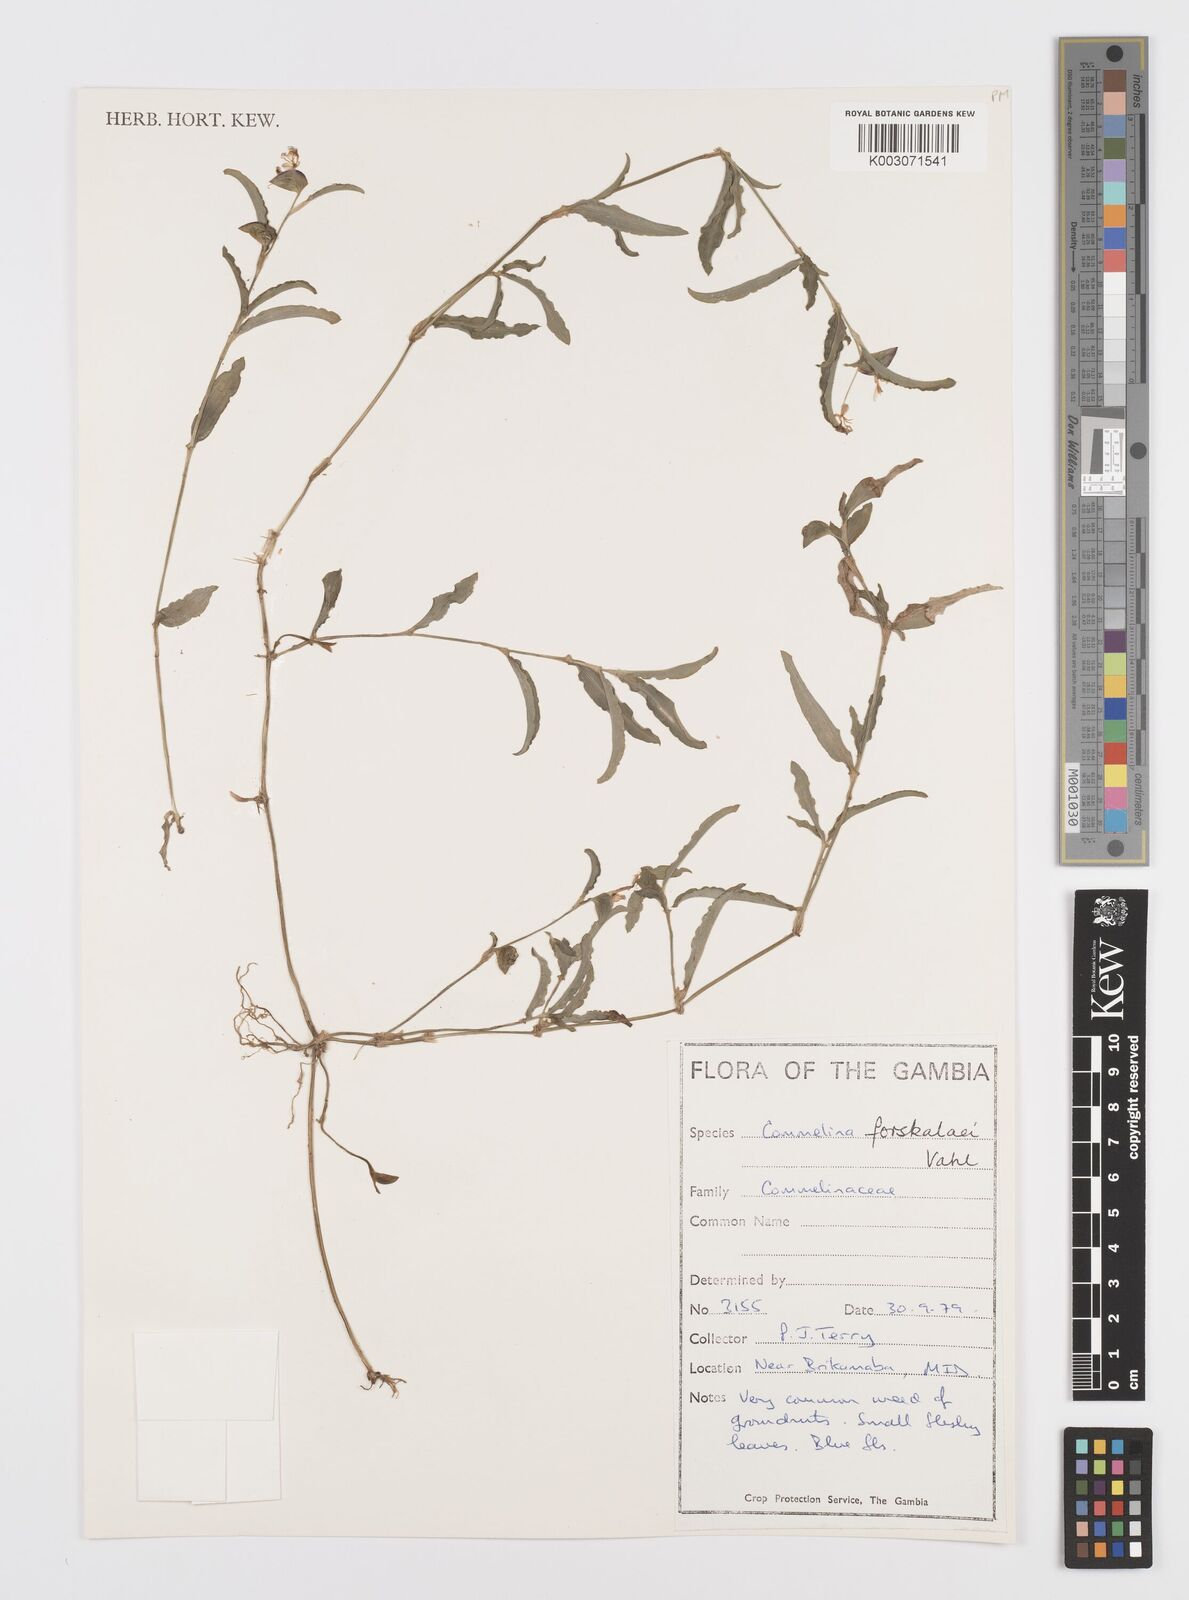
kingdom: Plantae
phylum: Tracheophyta
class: Liliopsida
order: Commelinales
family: Commelinaceae
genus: Commelina
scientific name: Commelina forskaolii
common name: Rat's ear
